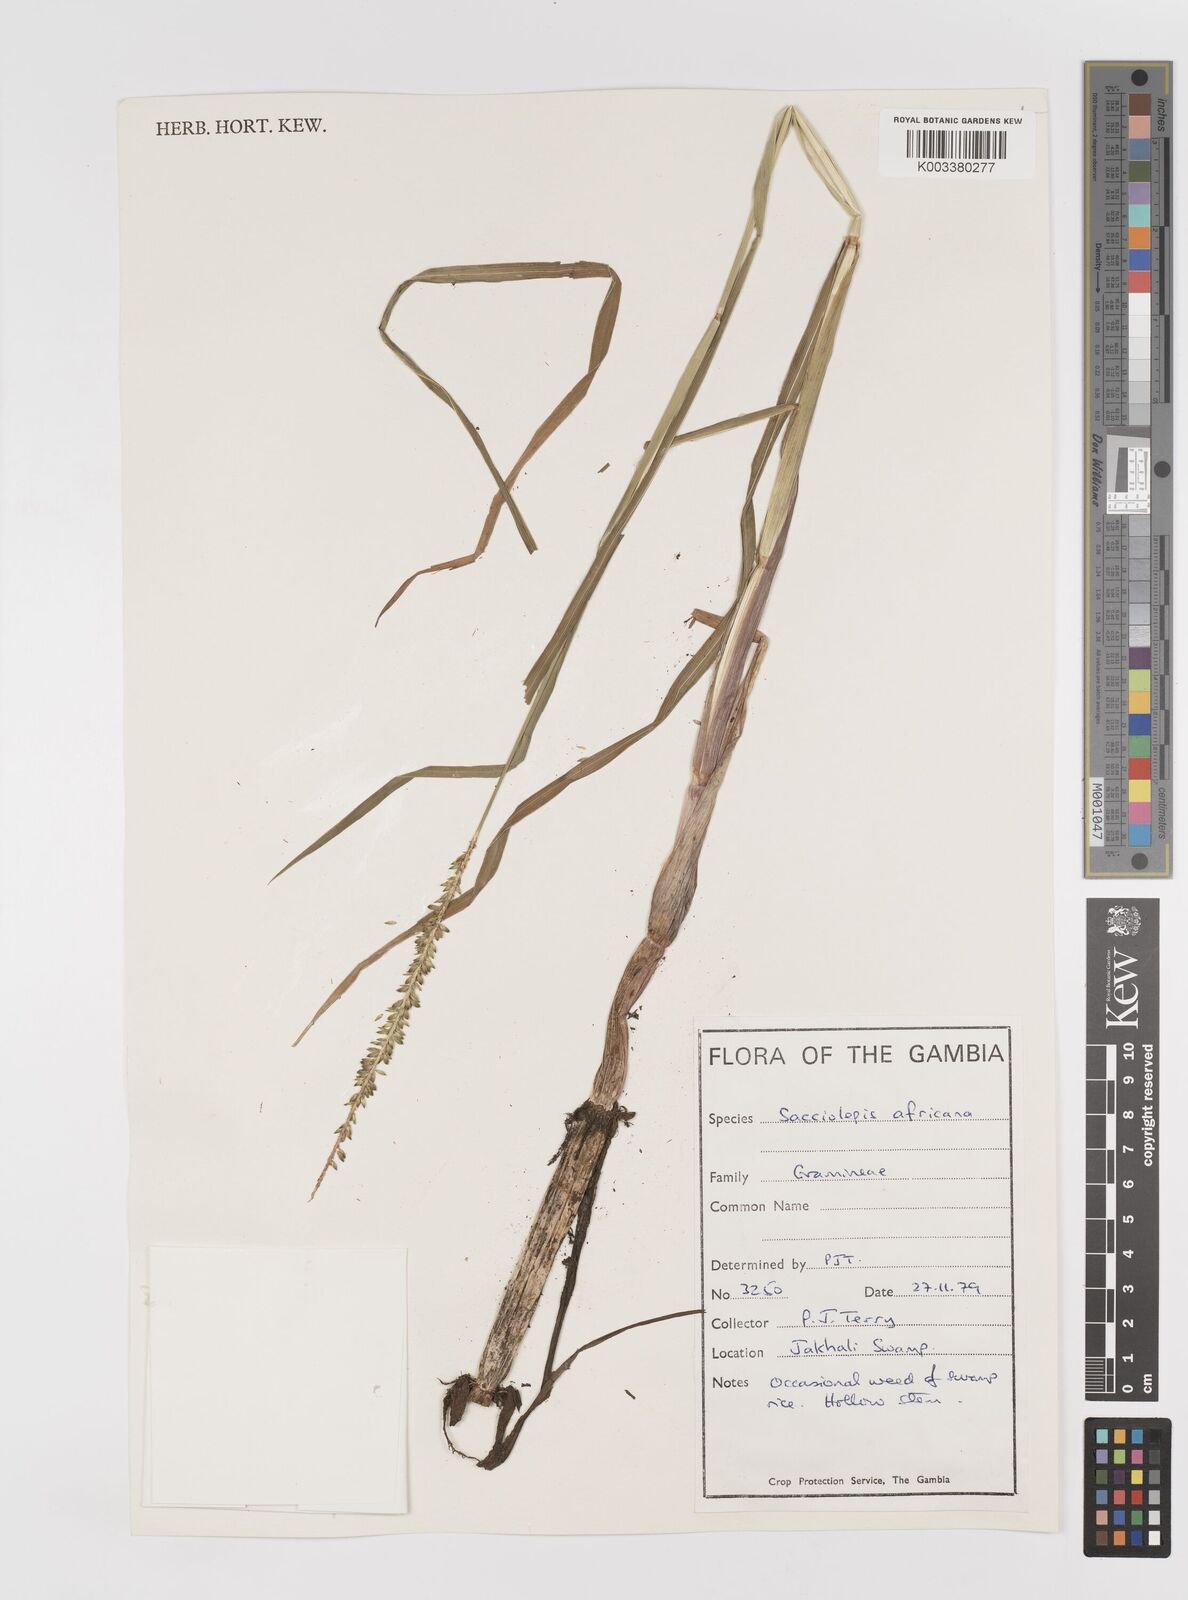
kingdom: Plantae
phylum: Tracheophyta
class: Liliopsida
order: Poales
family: Poaceae
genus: Sacciolepis
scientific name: Sacciolepis africana
